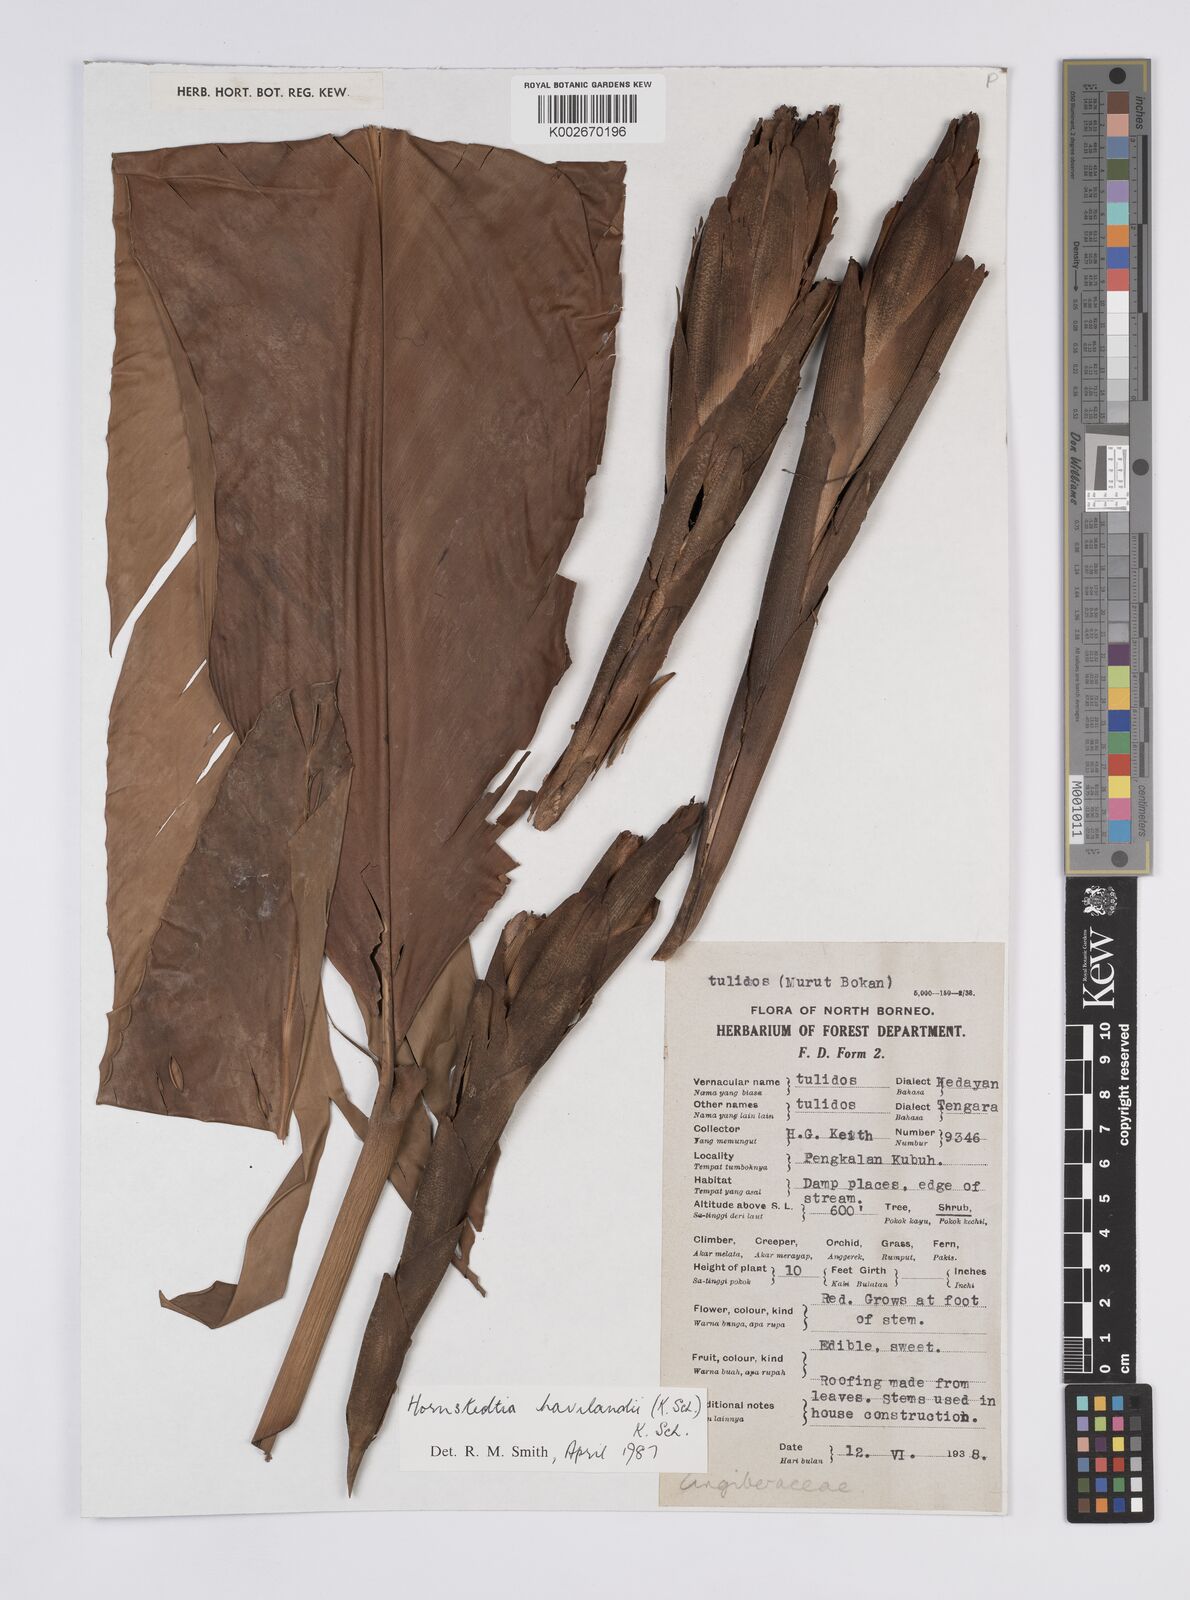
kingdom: Plantae
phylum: Tracheophyta
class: Liliopsida
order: Zingiberales
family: Zingiberaceae
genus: Hornstedtia
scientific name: Hornstedtia havilandii
